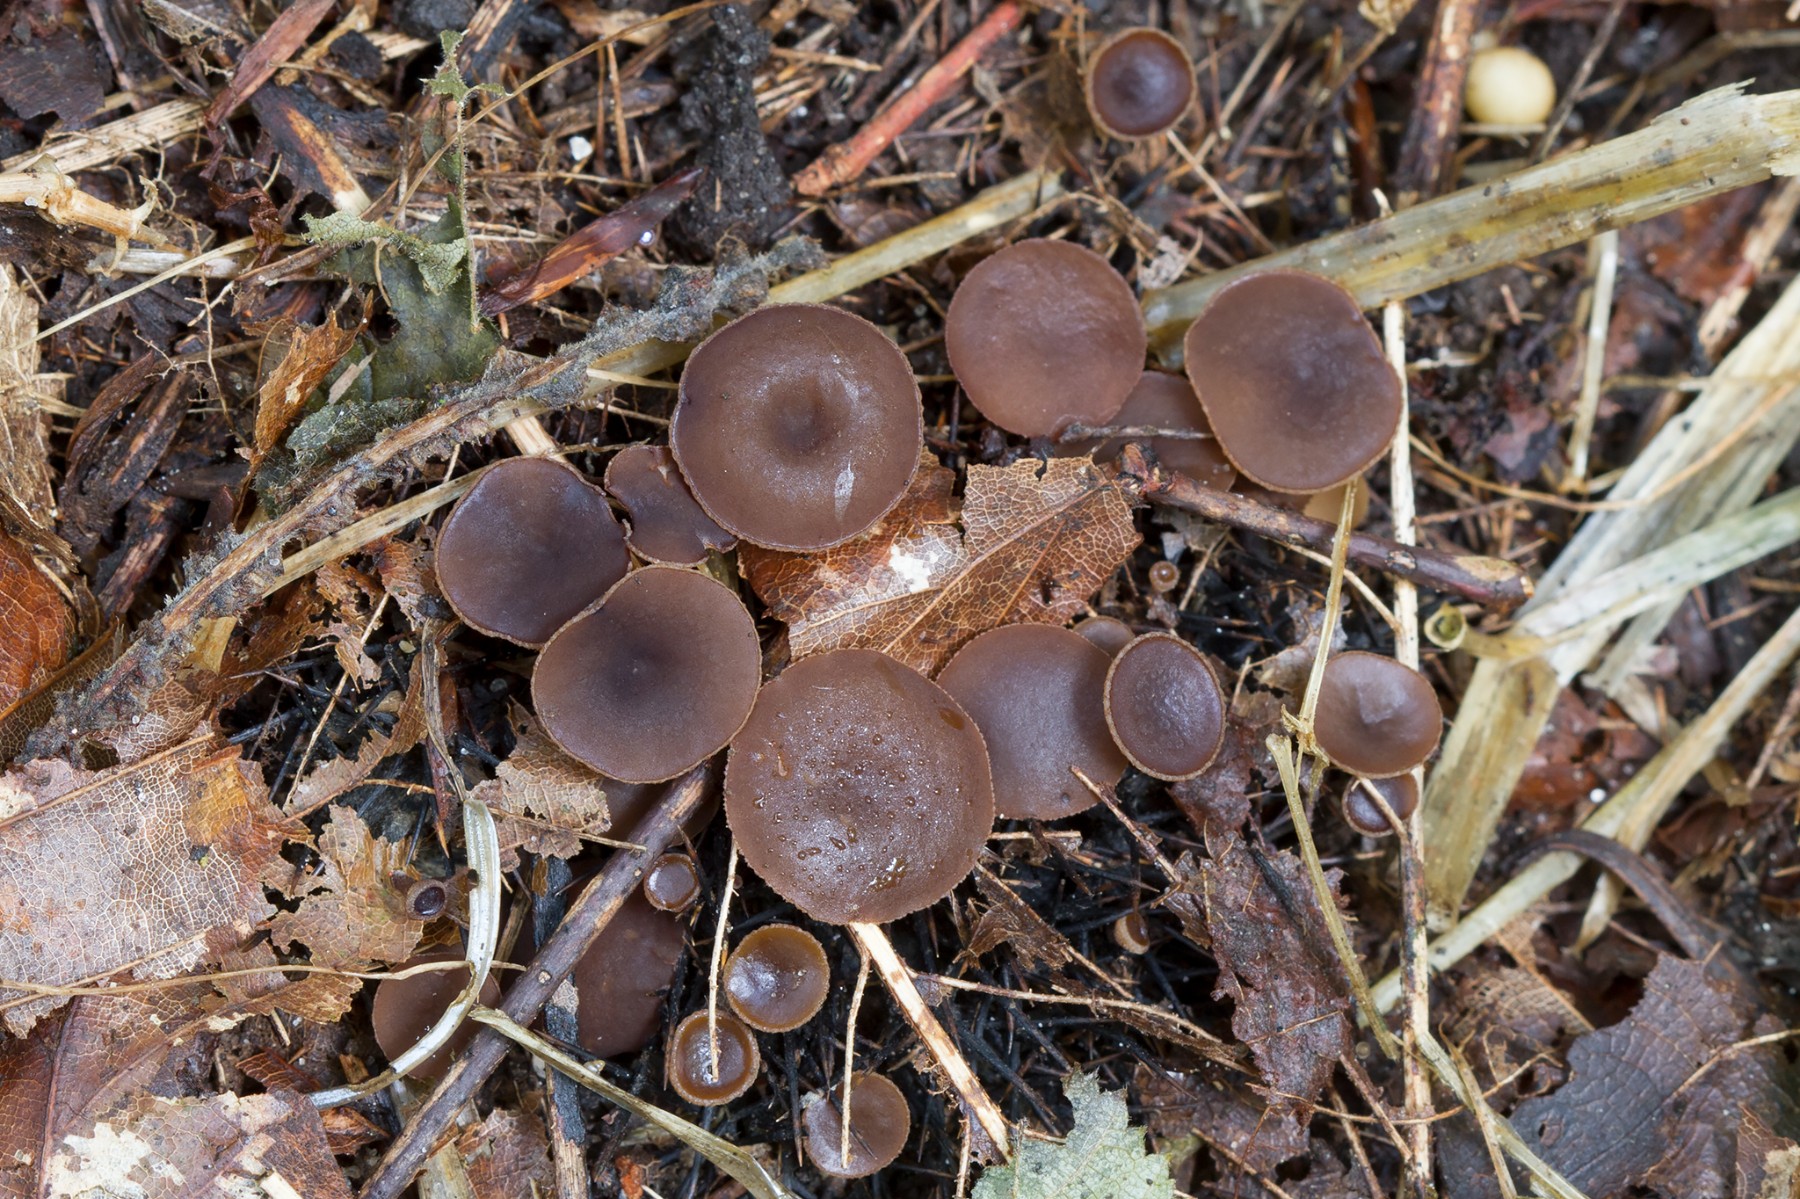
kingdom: Fungi
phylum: Ascomycota
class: Leotiomycetes
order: Helotiales
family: Rutstroemiaceae
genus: Lanzia
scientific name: Lanzia echinophila
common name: kastanie-brunskive
